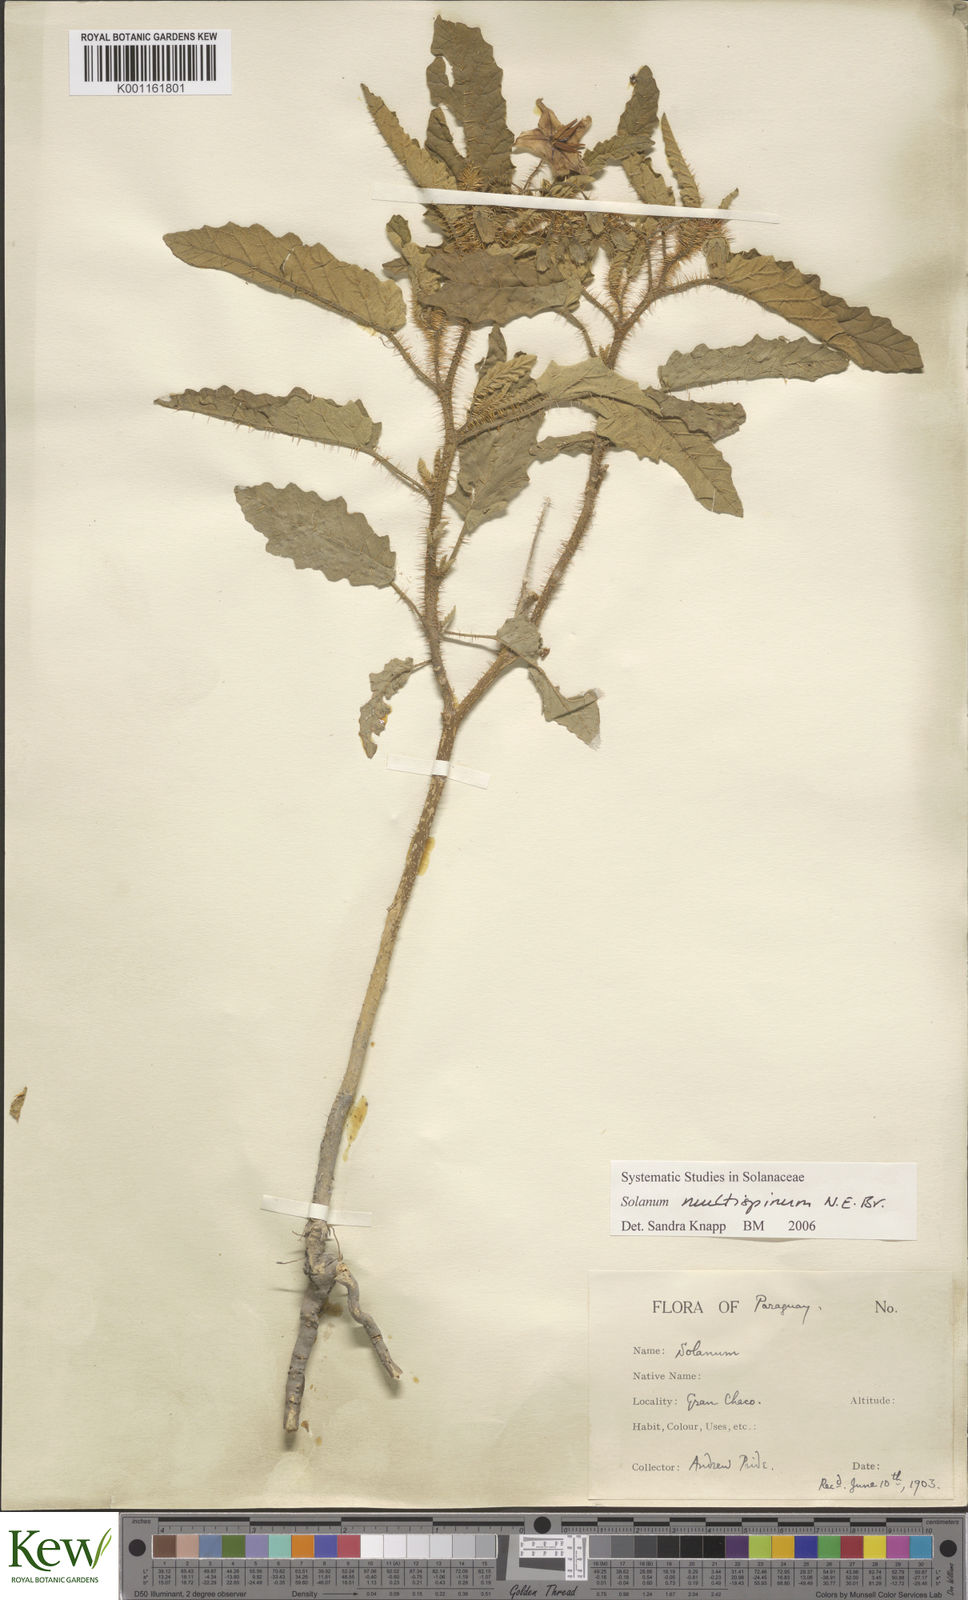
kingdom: Plantae
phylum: Tracheophyta
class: Magnoliopsida
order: Solanales
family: Solanaceae
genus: Solanum
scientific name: Solanum multispinum
